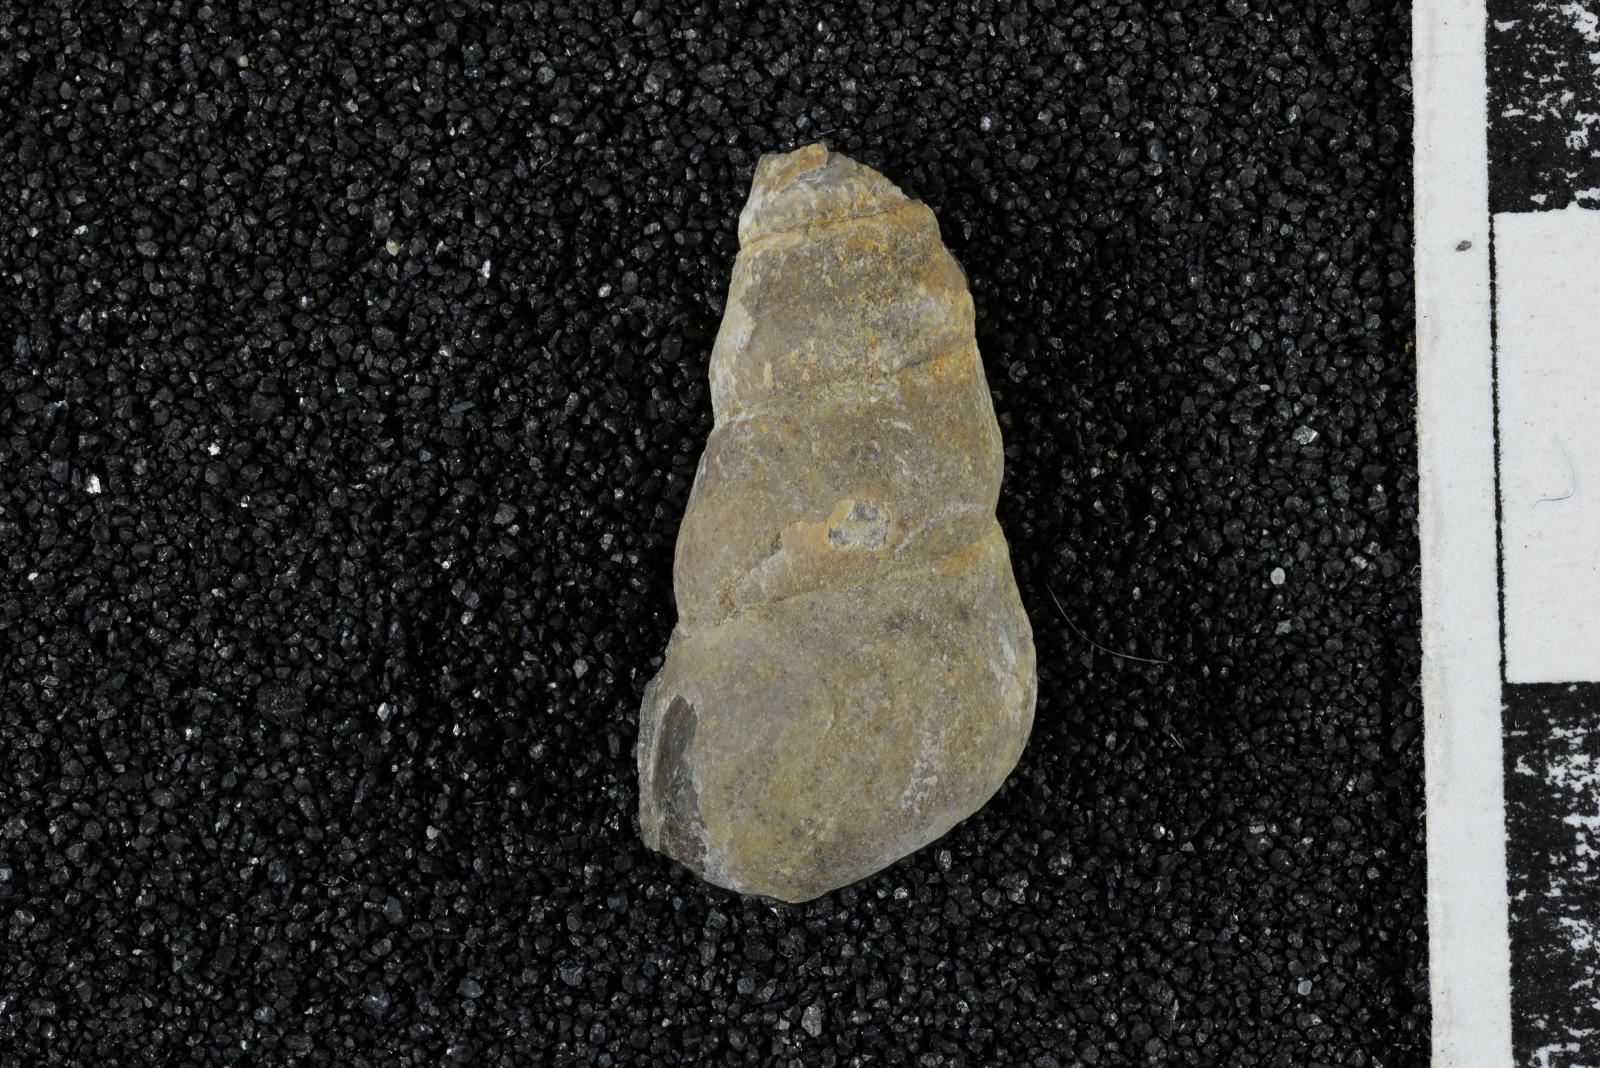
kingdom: Animalia
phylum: Mollusca
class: Gastropoda
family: Turritellidae
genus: Turritella
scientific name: Turritella ossa
